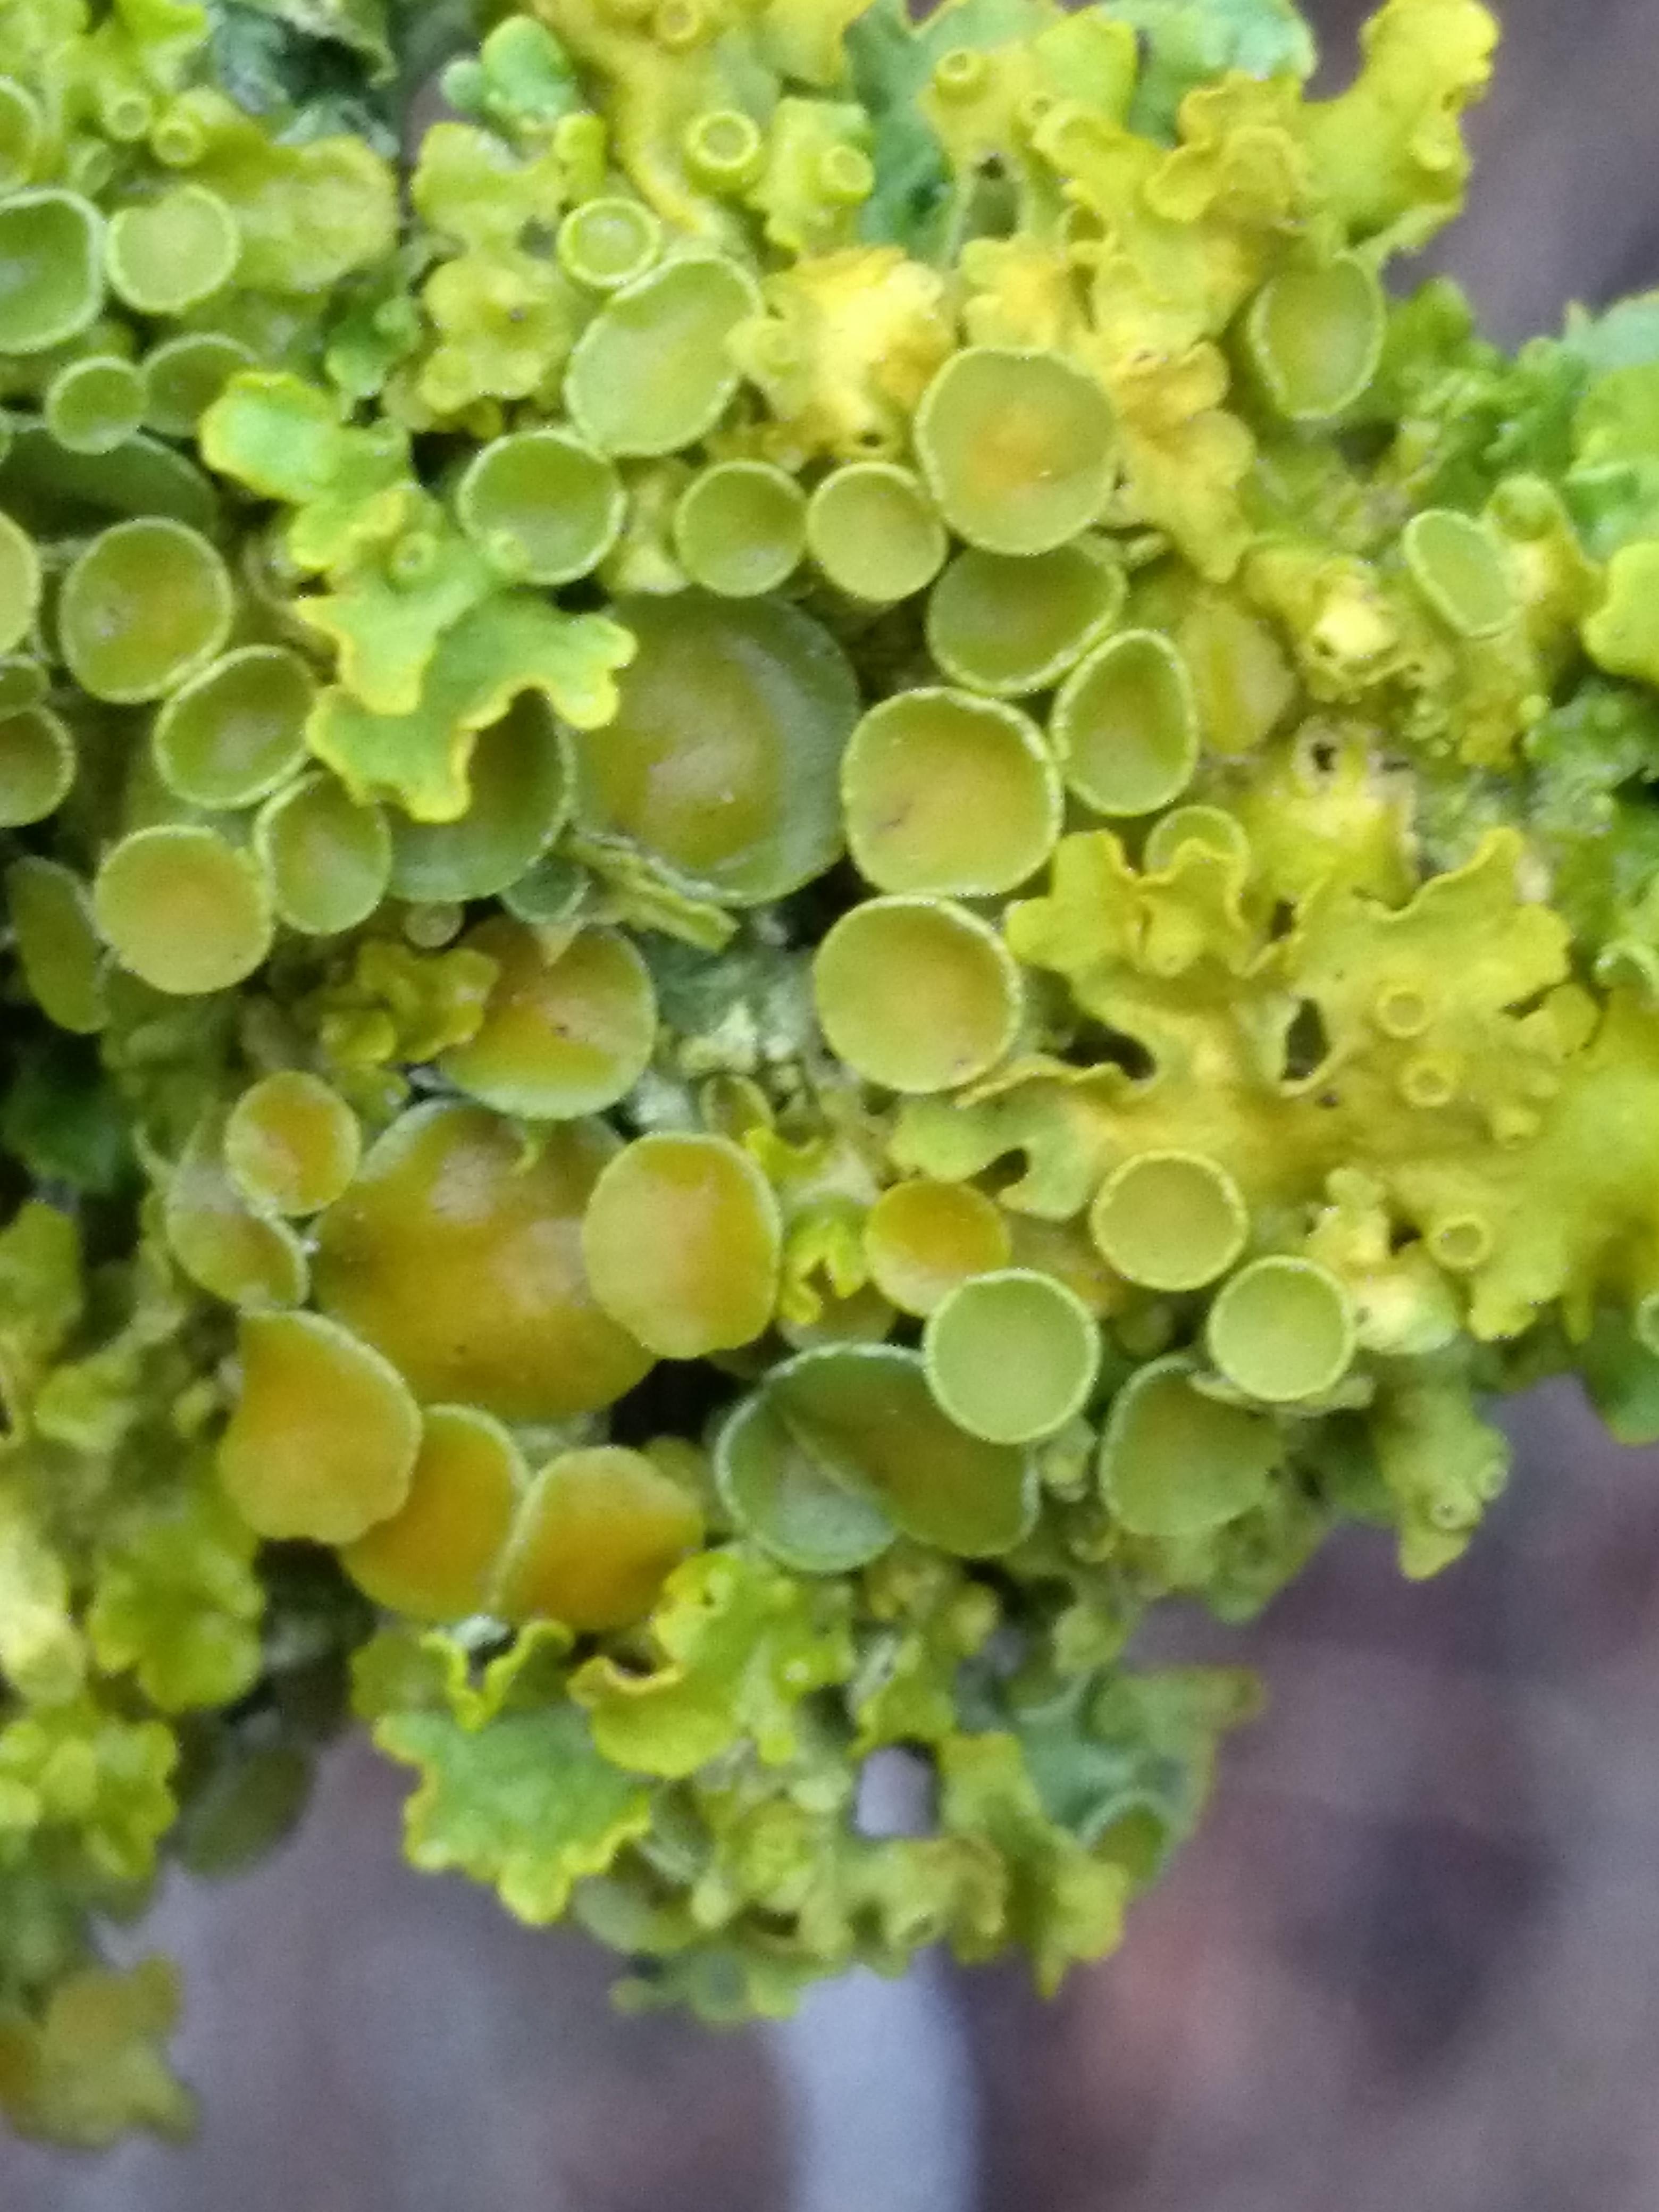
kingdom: Fungi
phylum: Ascomycota
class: Lecanoromycetes
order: Teloschistales
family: Teloschistaceae
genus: Xanthoria
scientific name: Xanthoria parietina
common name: almindelig væggelav
